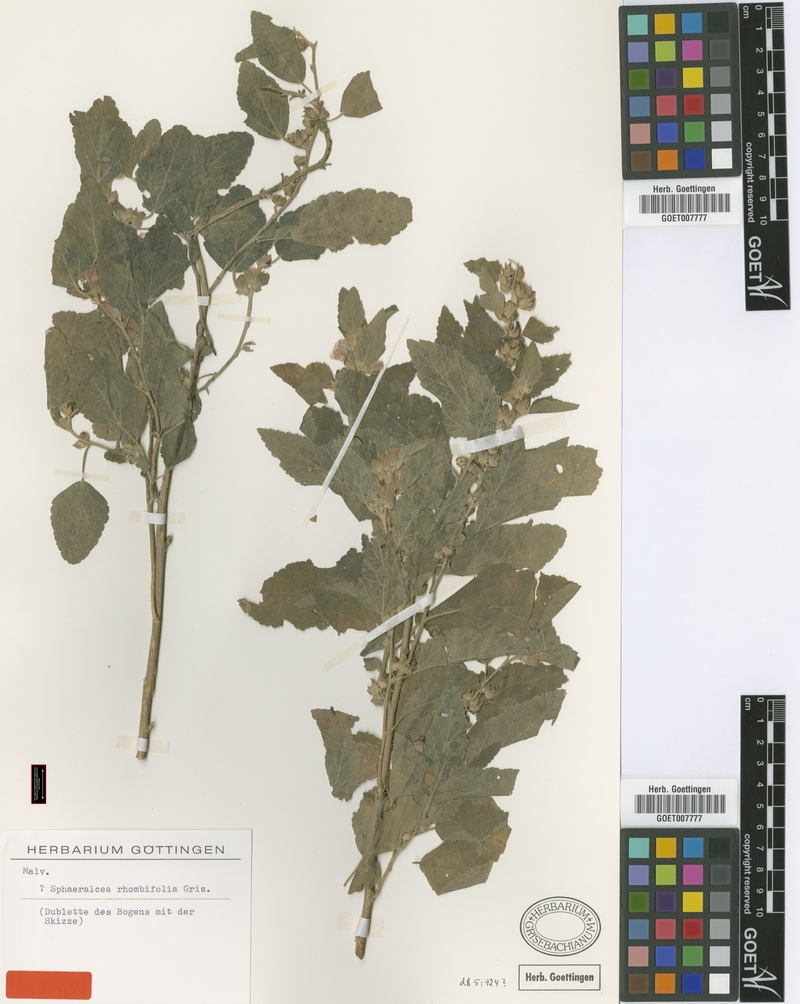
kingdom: Plantae
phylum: Tracheophyta
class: Magnoliopsida
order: Malvales
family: Malvaceae
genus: Sphaeralcea
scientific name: Sphaeralcea bonariensis
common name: Latin globemallow
